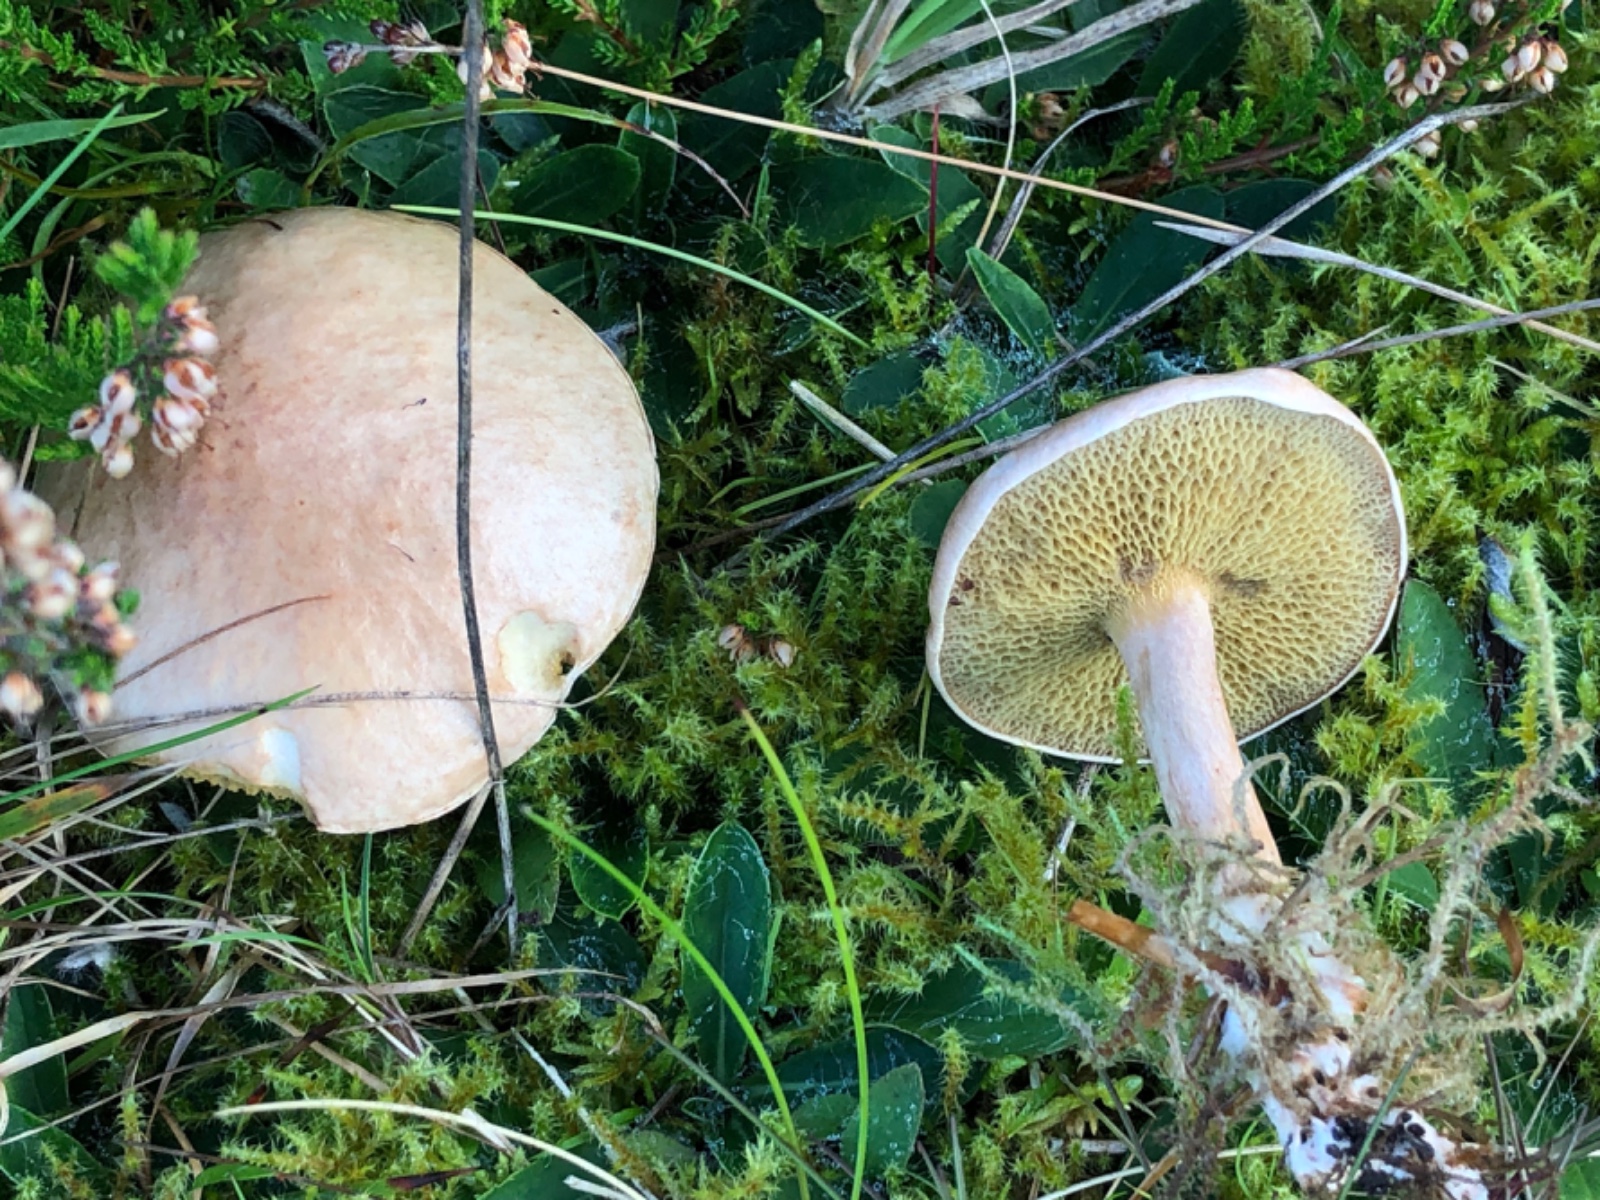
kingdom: Fungi
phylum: Basidiomycota
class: Agaricomycetes
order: Boletales
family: Suillaceae
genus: Suillus
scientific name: Suillus bovinus
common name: grovporet slimrørhat
